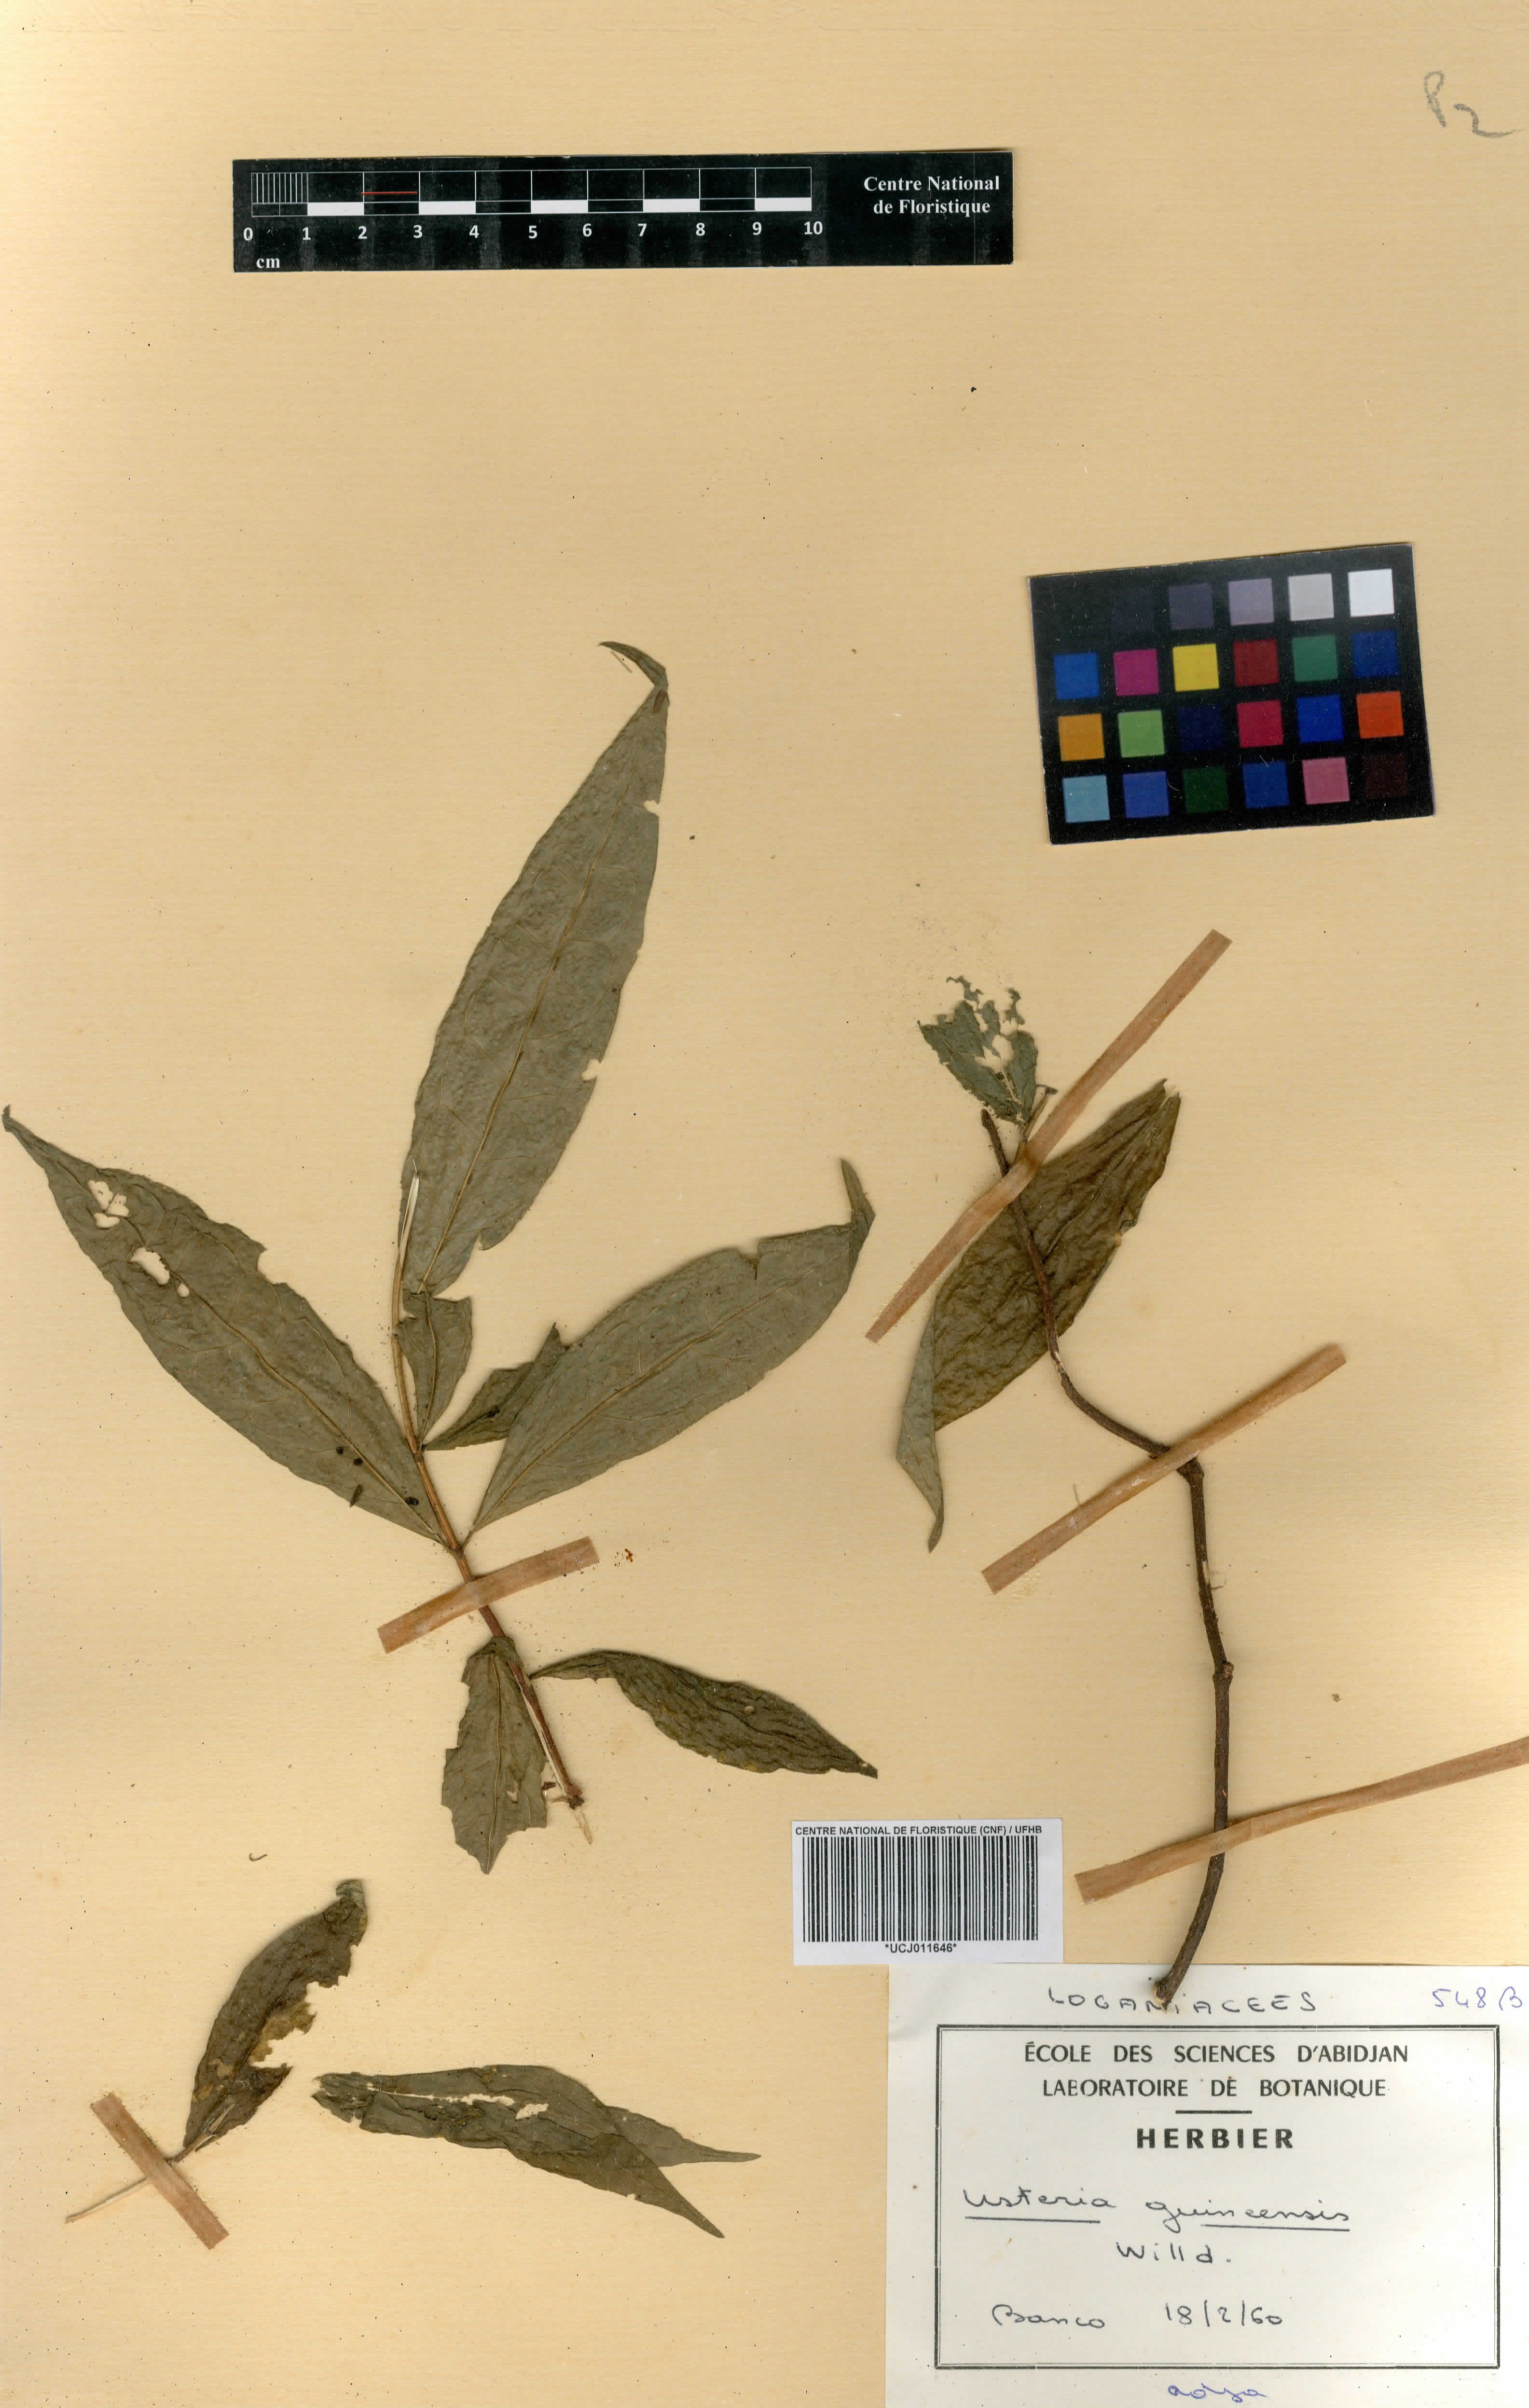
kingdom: Plantae
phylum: Tracheophyta
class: Magnoliopsida
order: Gentianales
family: Loganiaceae
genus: Usteria
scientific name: Usteria guineensis
